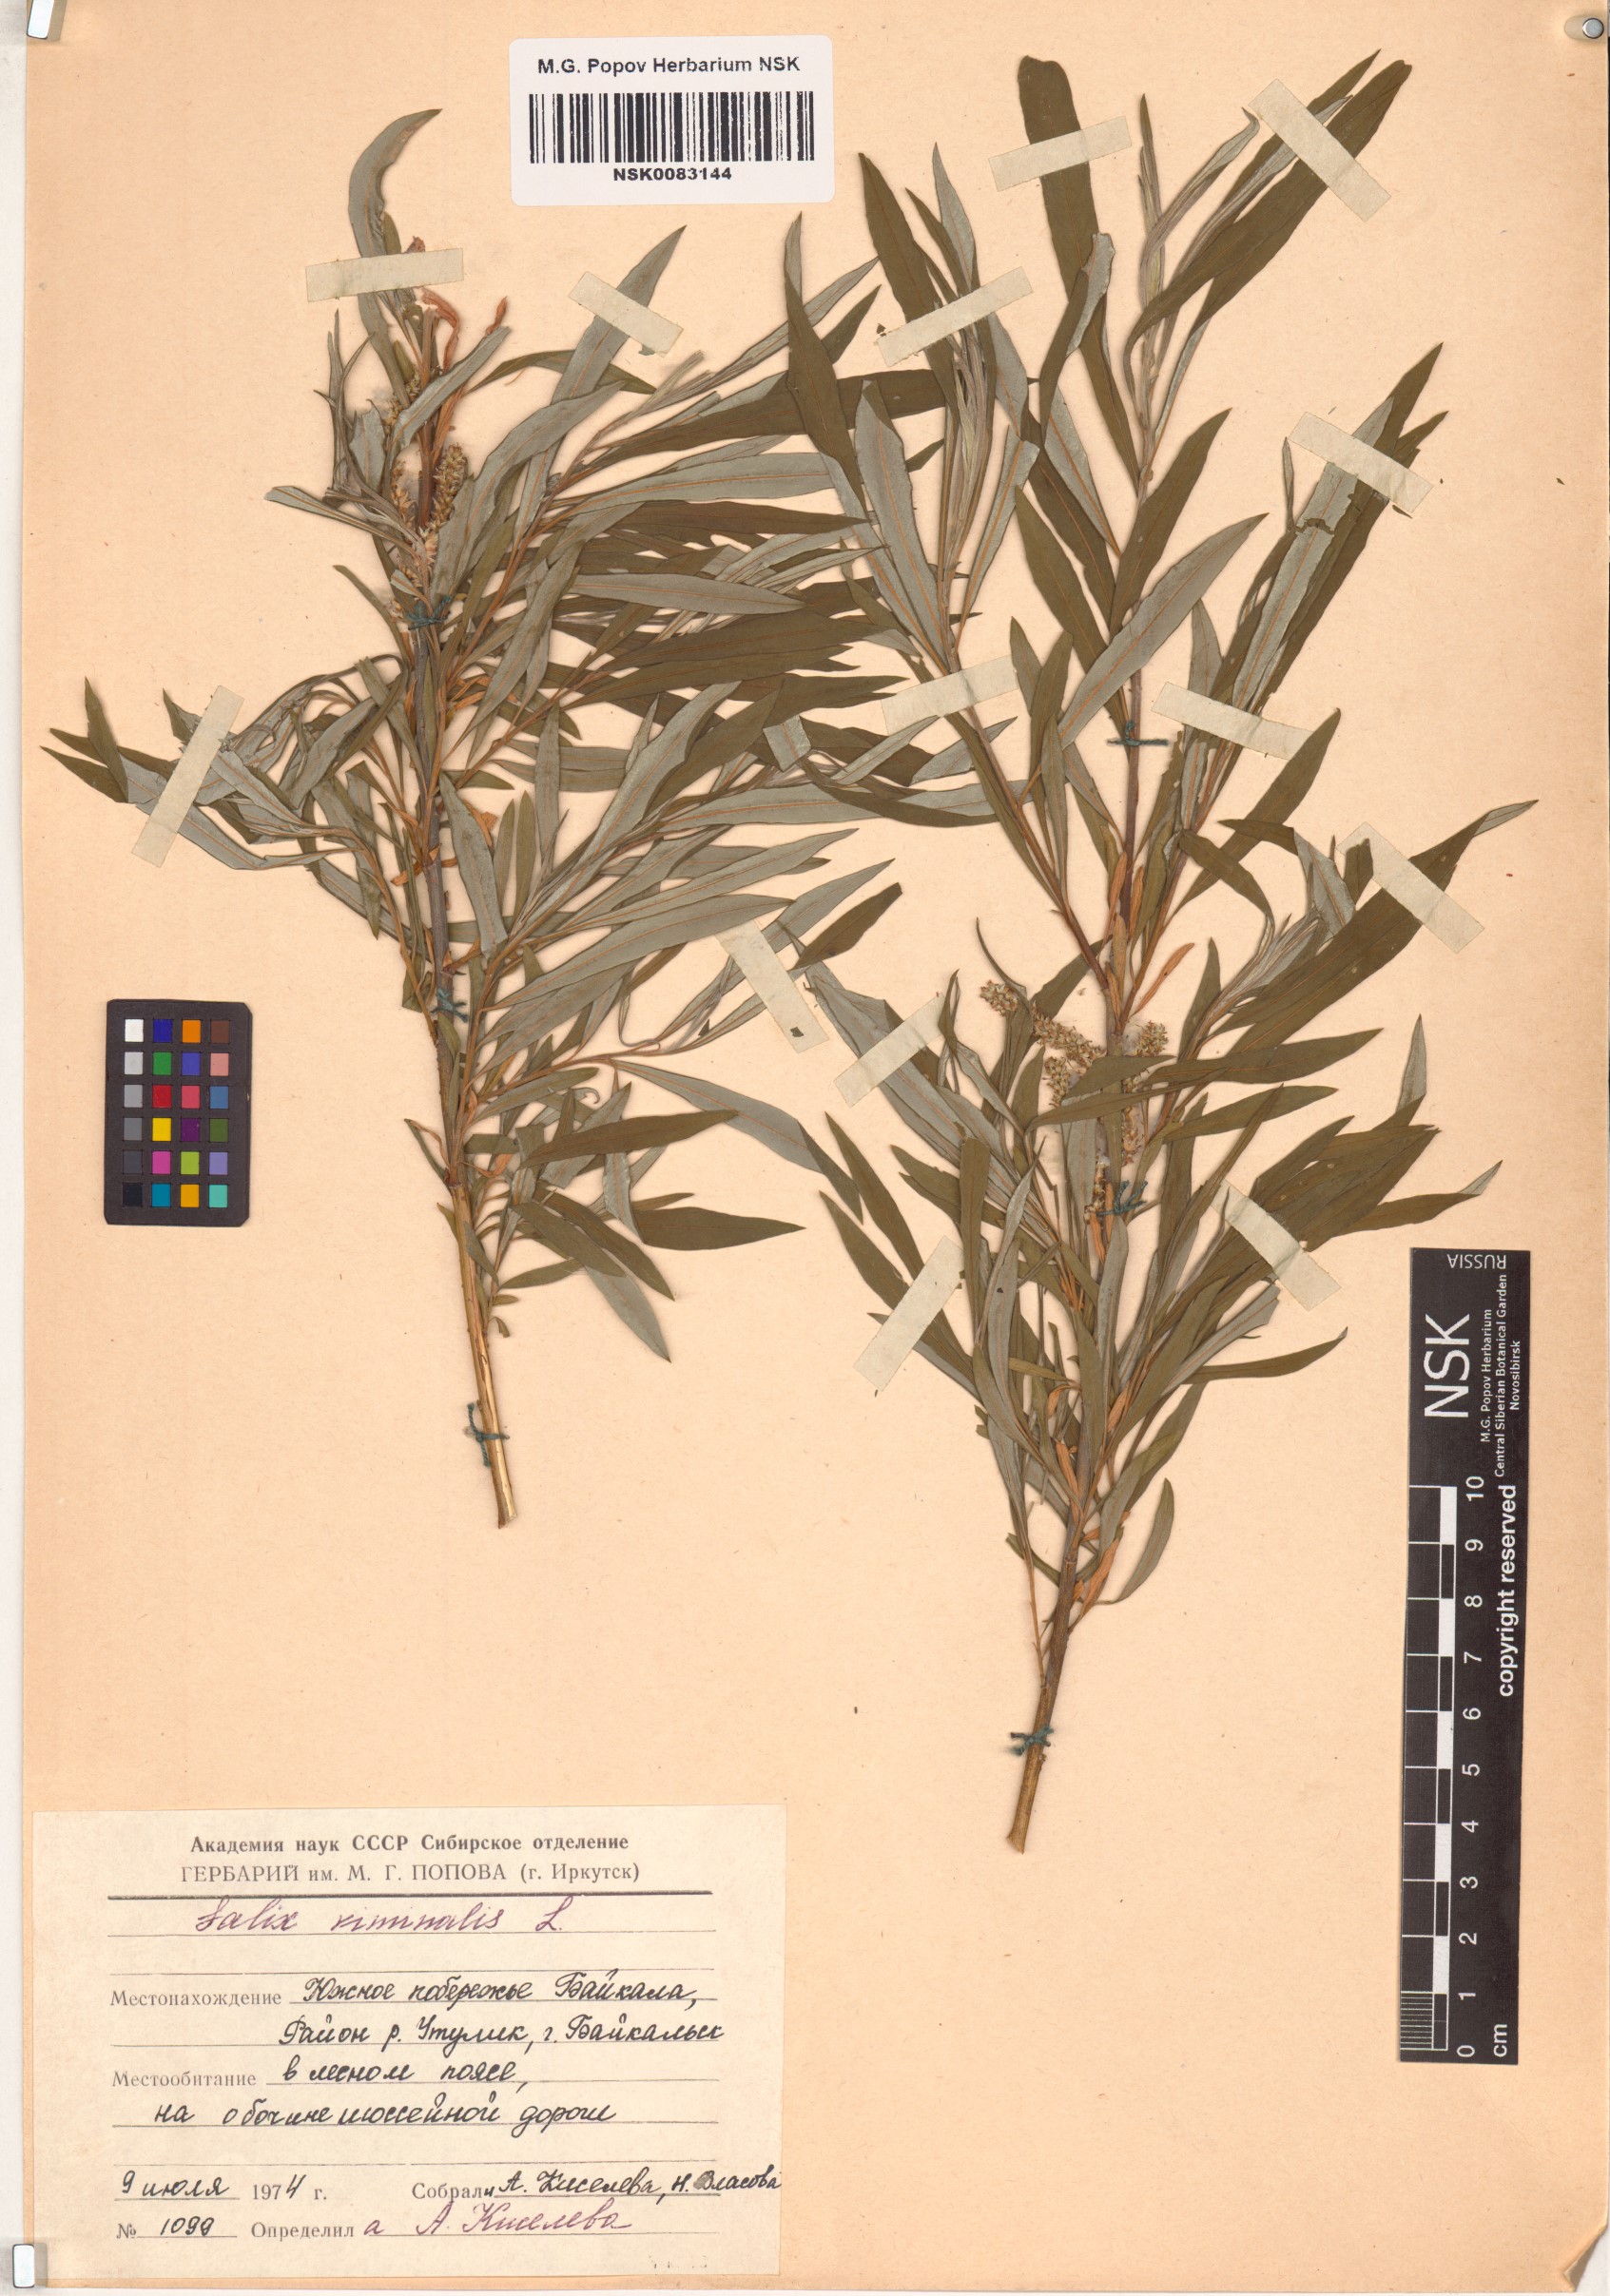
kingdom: Plantae
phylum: Tracheophyta
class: Magnoliopsida
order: Malpighiales
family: Salicaceae
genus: Salix
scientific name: Salix viminalis
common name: Osier
